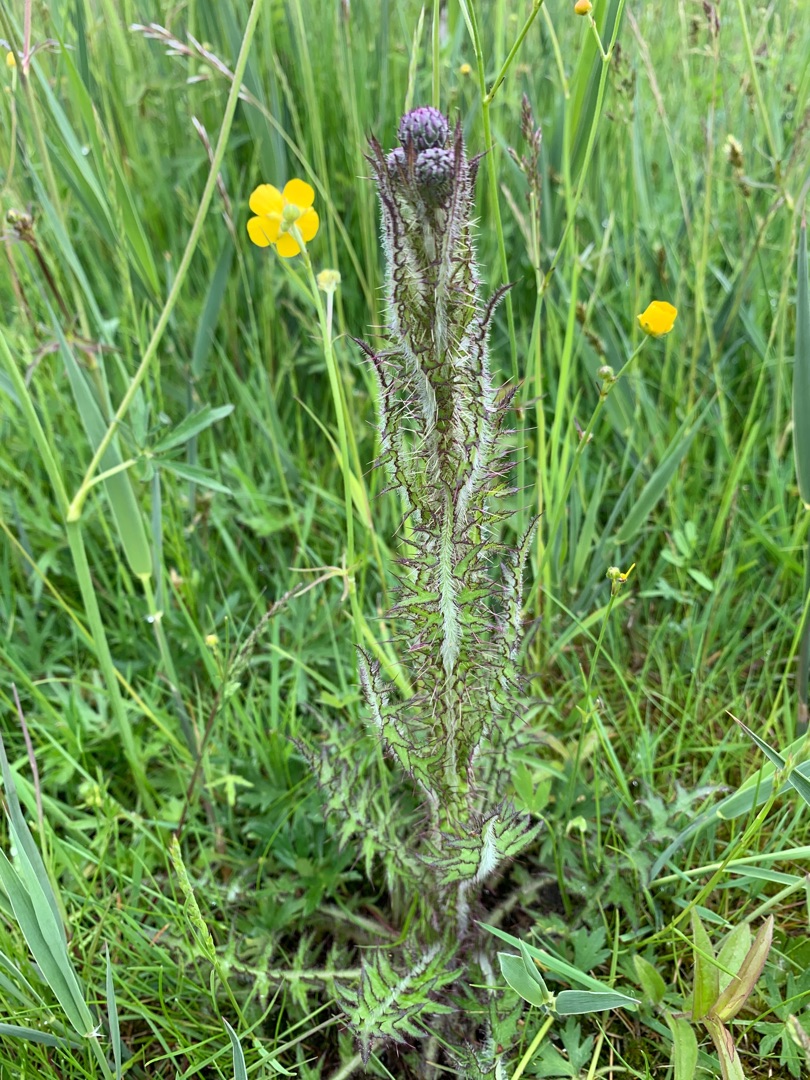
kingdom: Plantae
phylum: Tracheophyta
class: Magnoliopsida
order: Asterales
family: Asteraceae
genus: Cirsium
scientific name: Cirsium palustre
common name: Kær-tidsel
